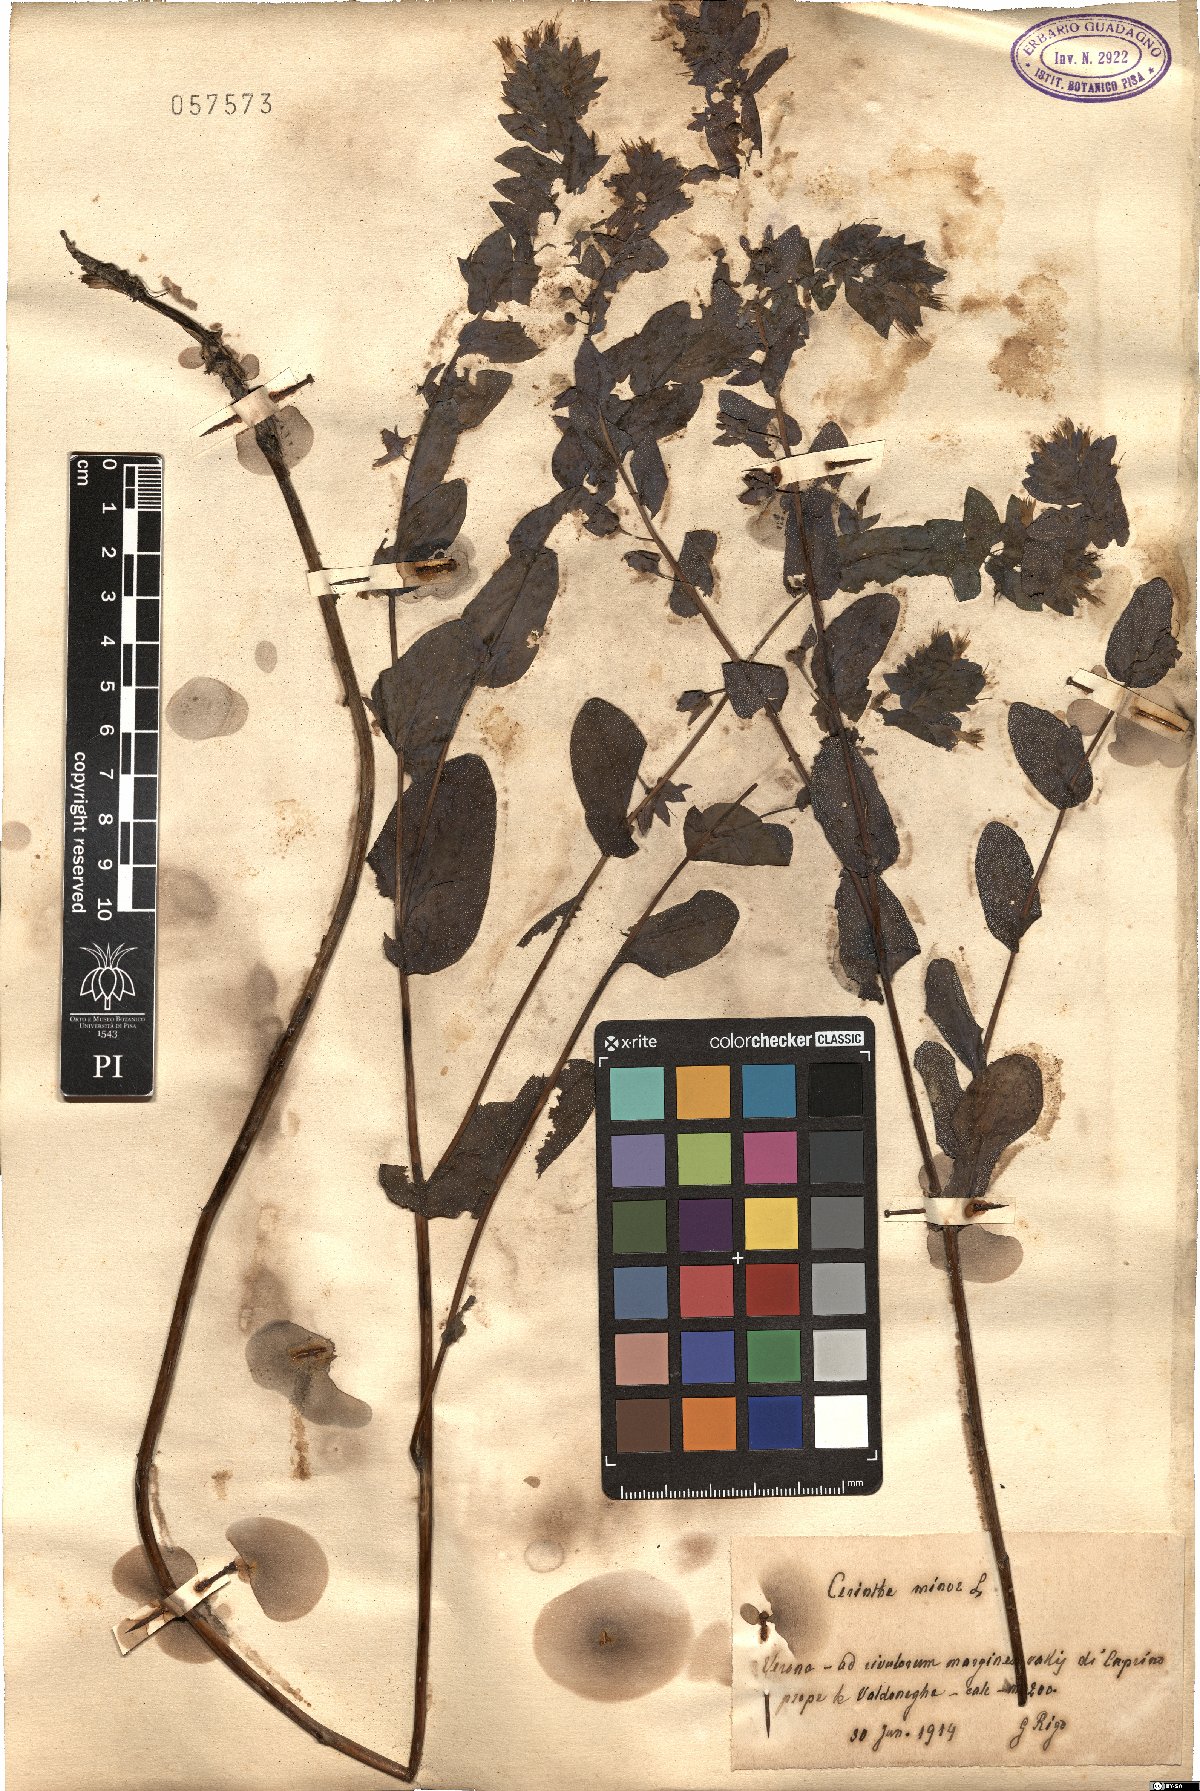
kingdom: Plantae
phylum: Tracheophyta
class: Magnoliopsida
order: Boraginales
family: Boraginaceae
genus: Cerinthe
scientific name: Cerinthe minor
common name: Lesser honeywort
